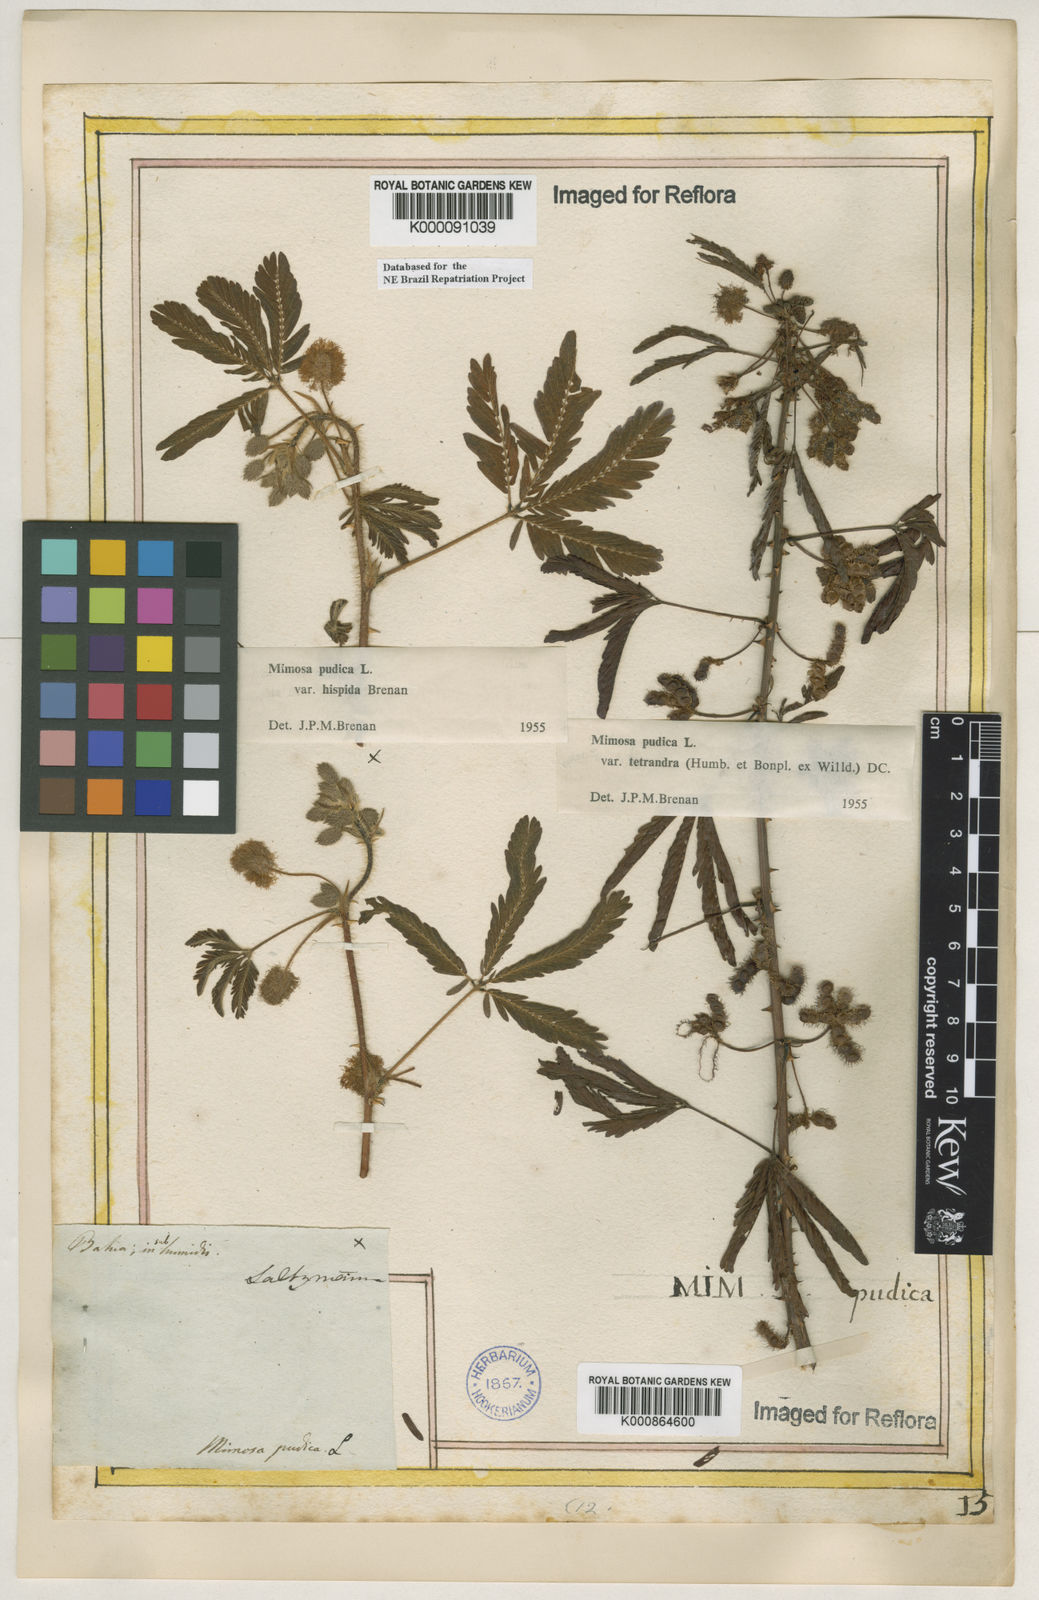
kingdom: Plantae
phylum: Tracheophyta
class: Magnoliopsida
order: Fabales
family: Fabaceae
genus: Mimosa
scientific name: Mimosa pudica
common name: Sensitive plant
